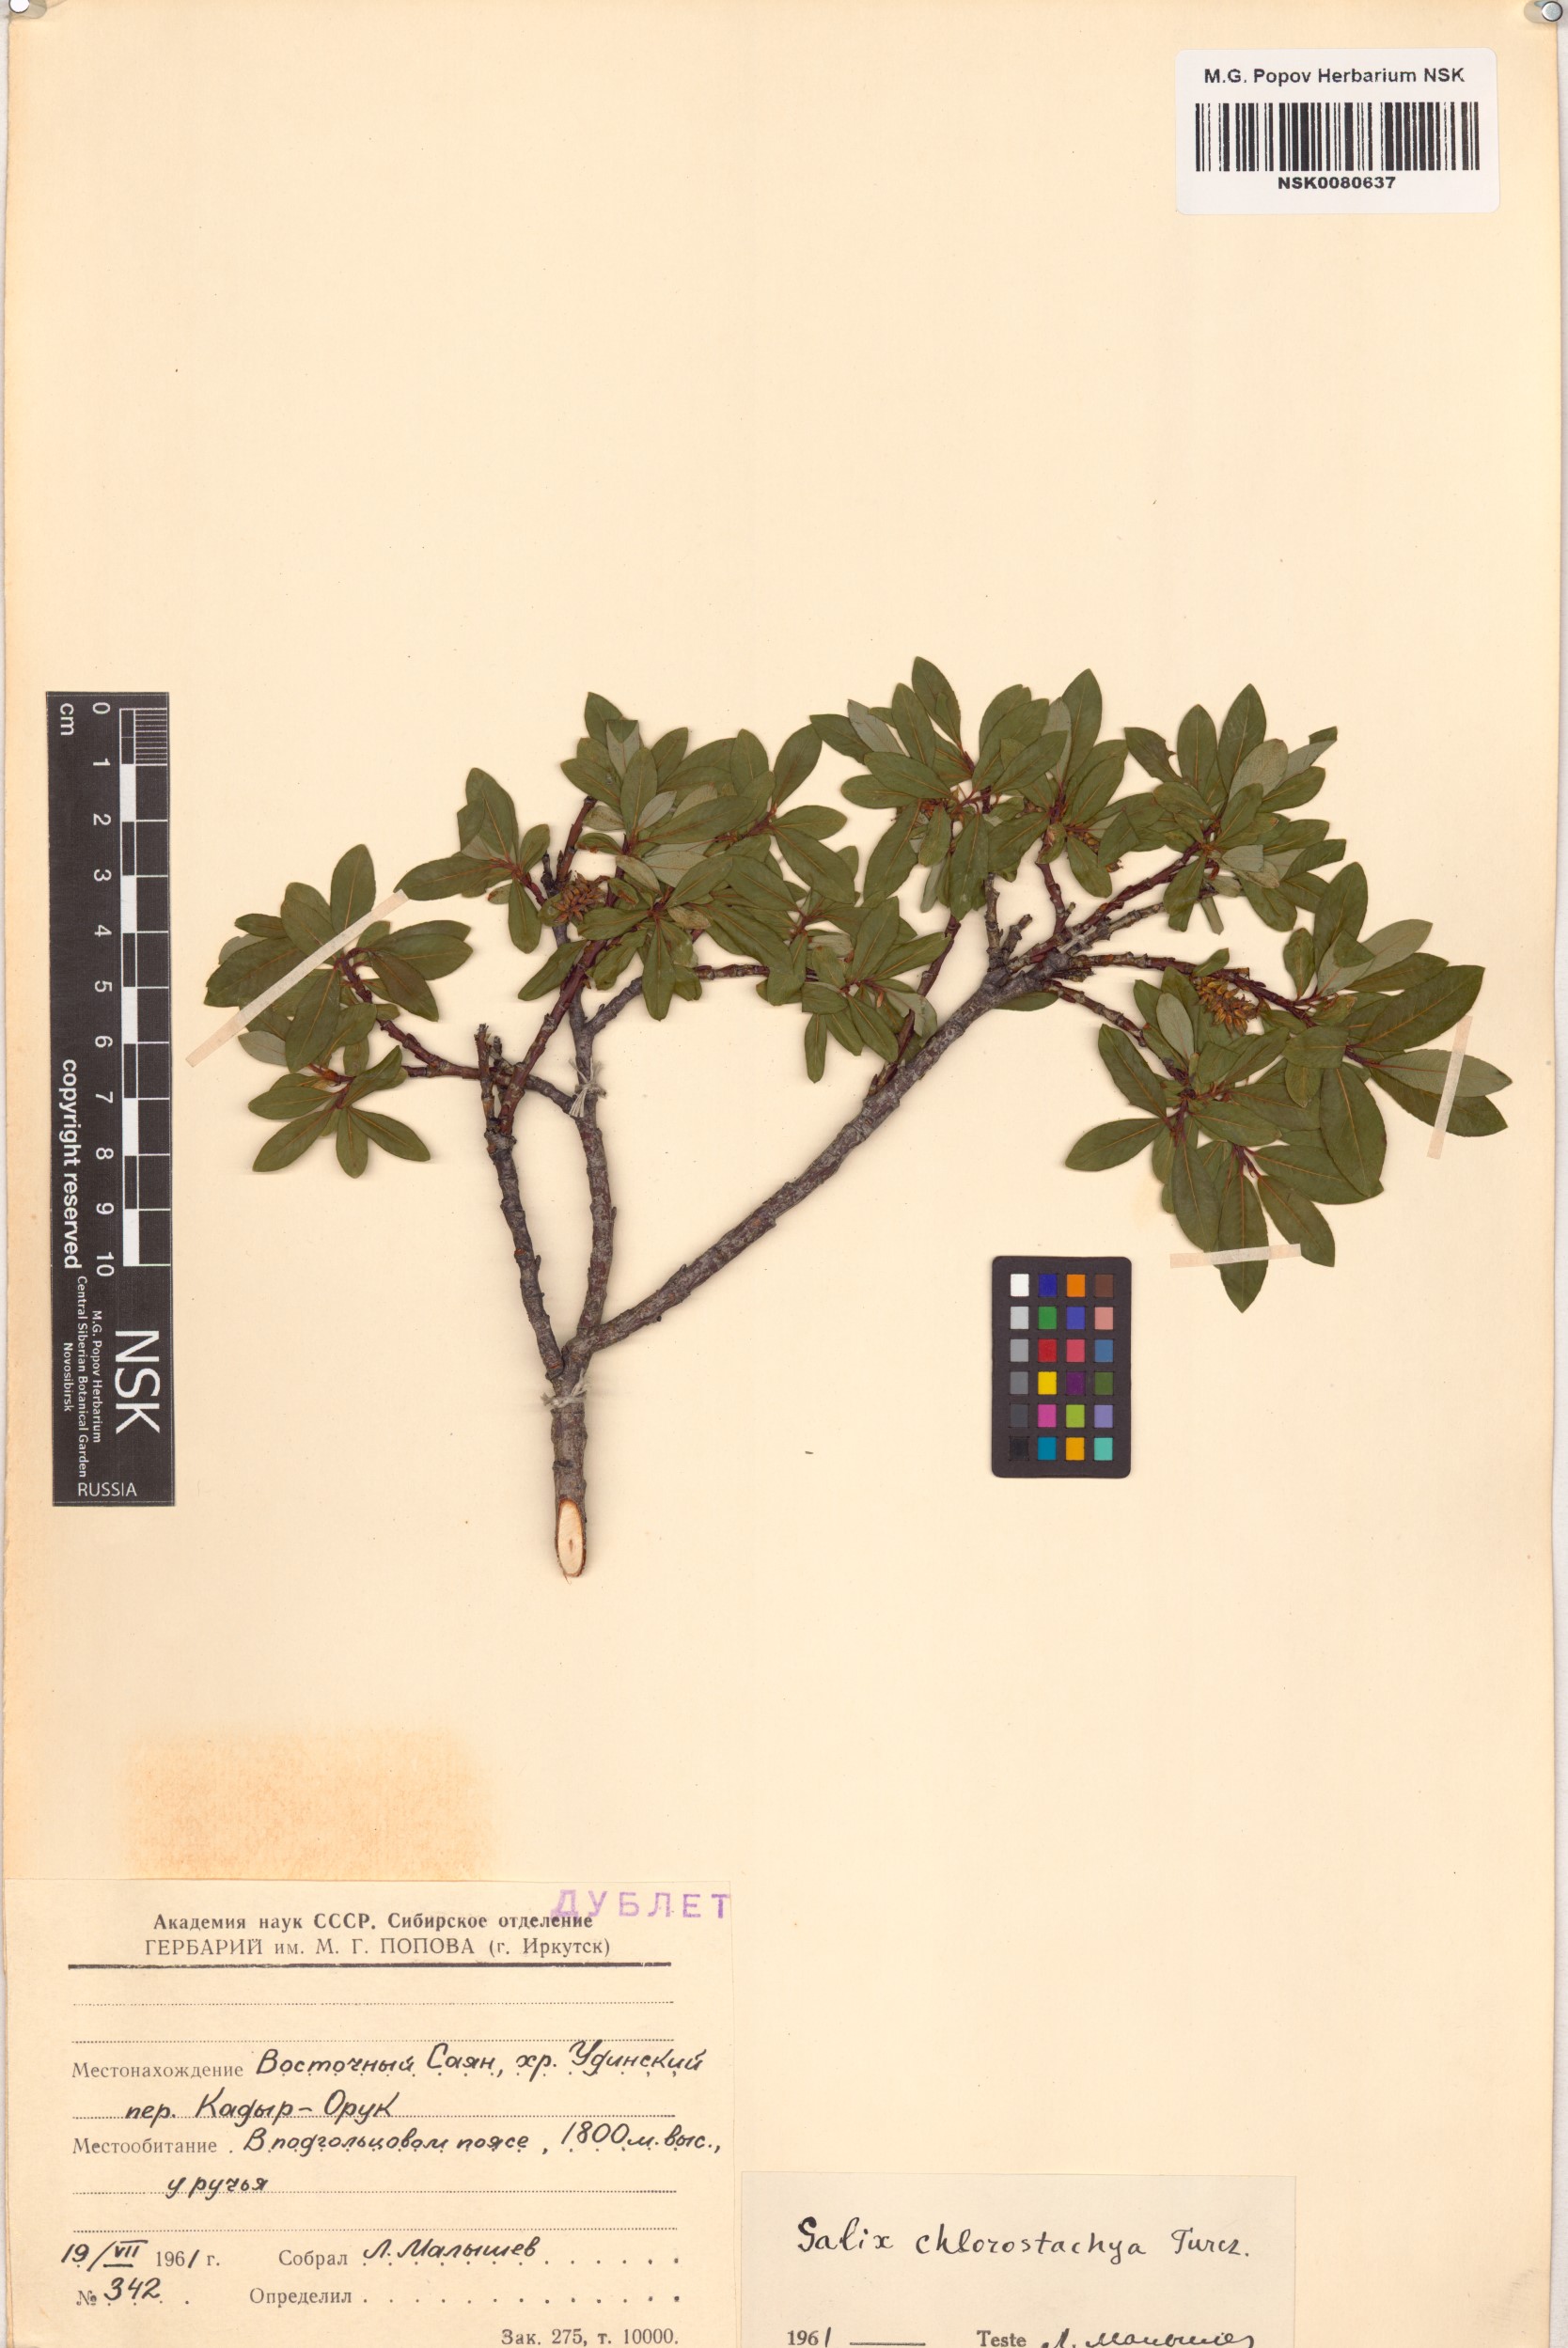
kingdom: Plantae
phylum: Tracheophyta
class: Magnoliopsida
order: Malpighiales
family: Salicaceae
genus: Salix
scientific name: Salix rhamnifolia
